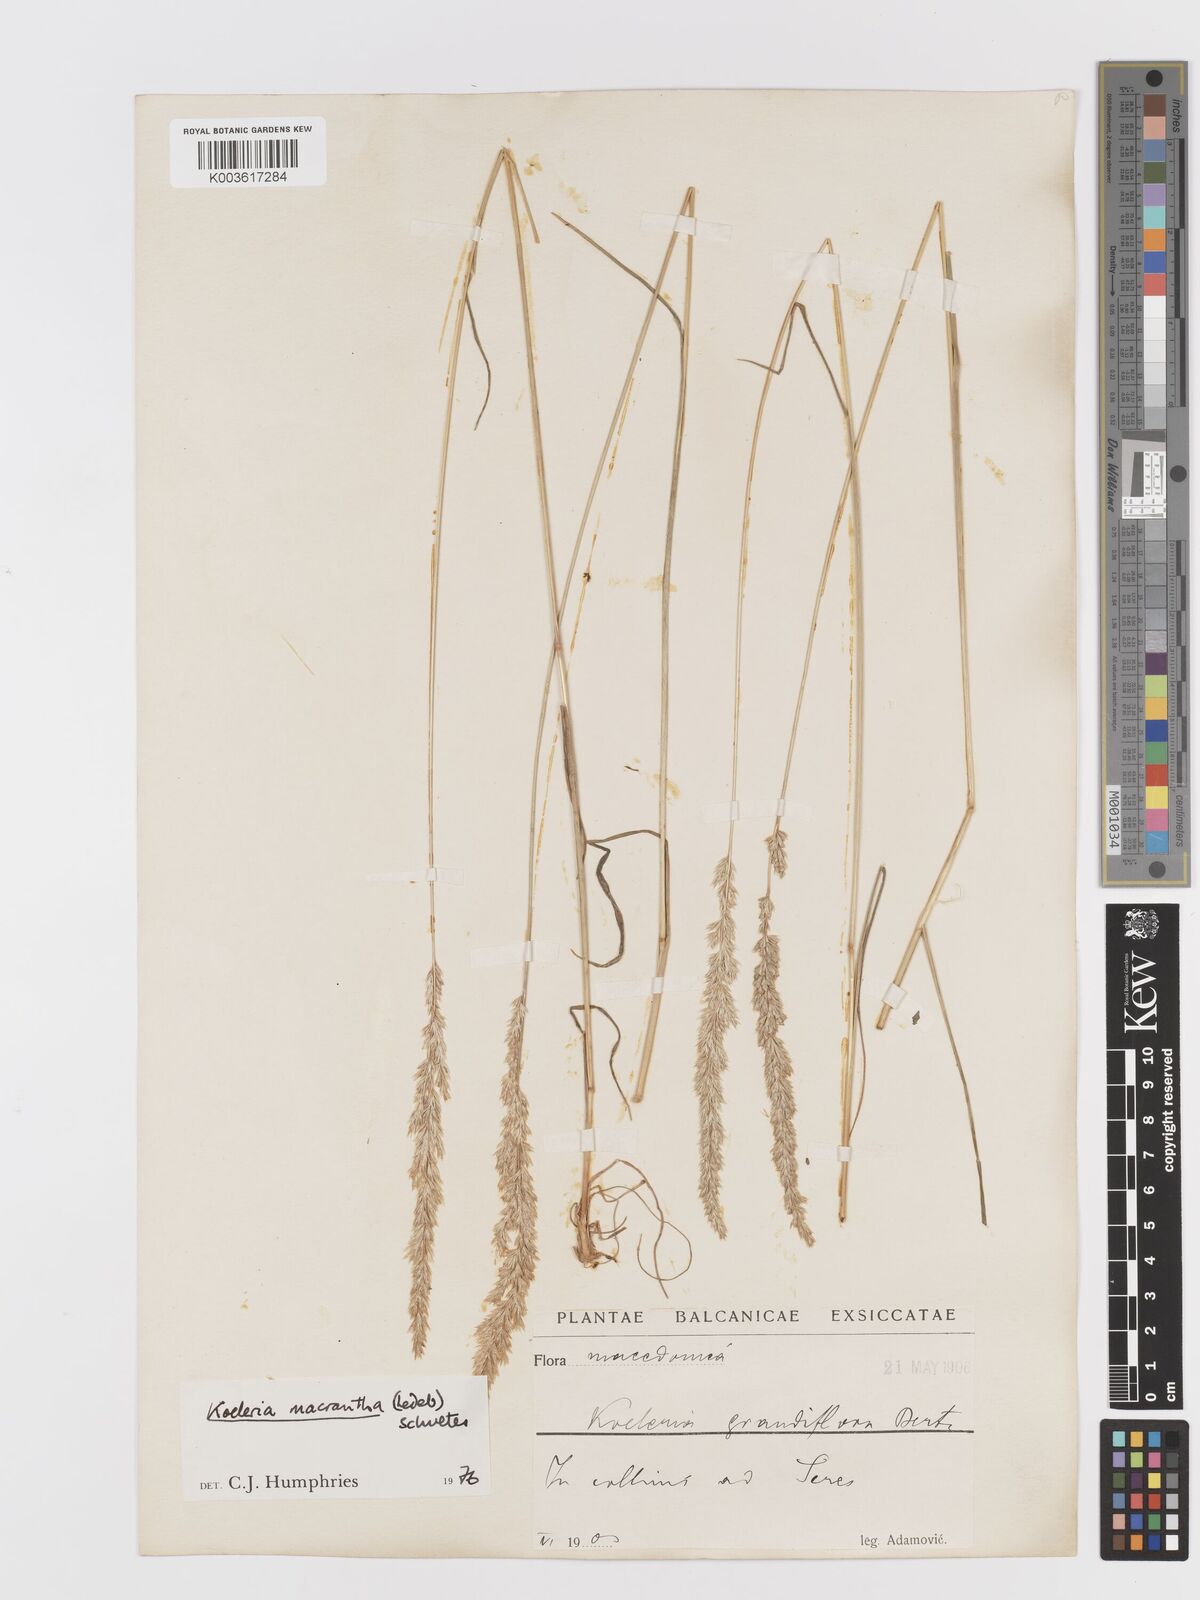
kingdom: Plantae
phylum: Tracheophyta
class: Liliopsida
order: Poales
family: Poaceae
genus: Koeleria
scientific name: Koeleria macrantha
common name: Crested hair-grass
